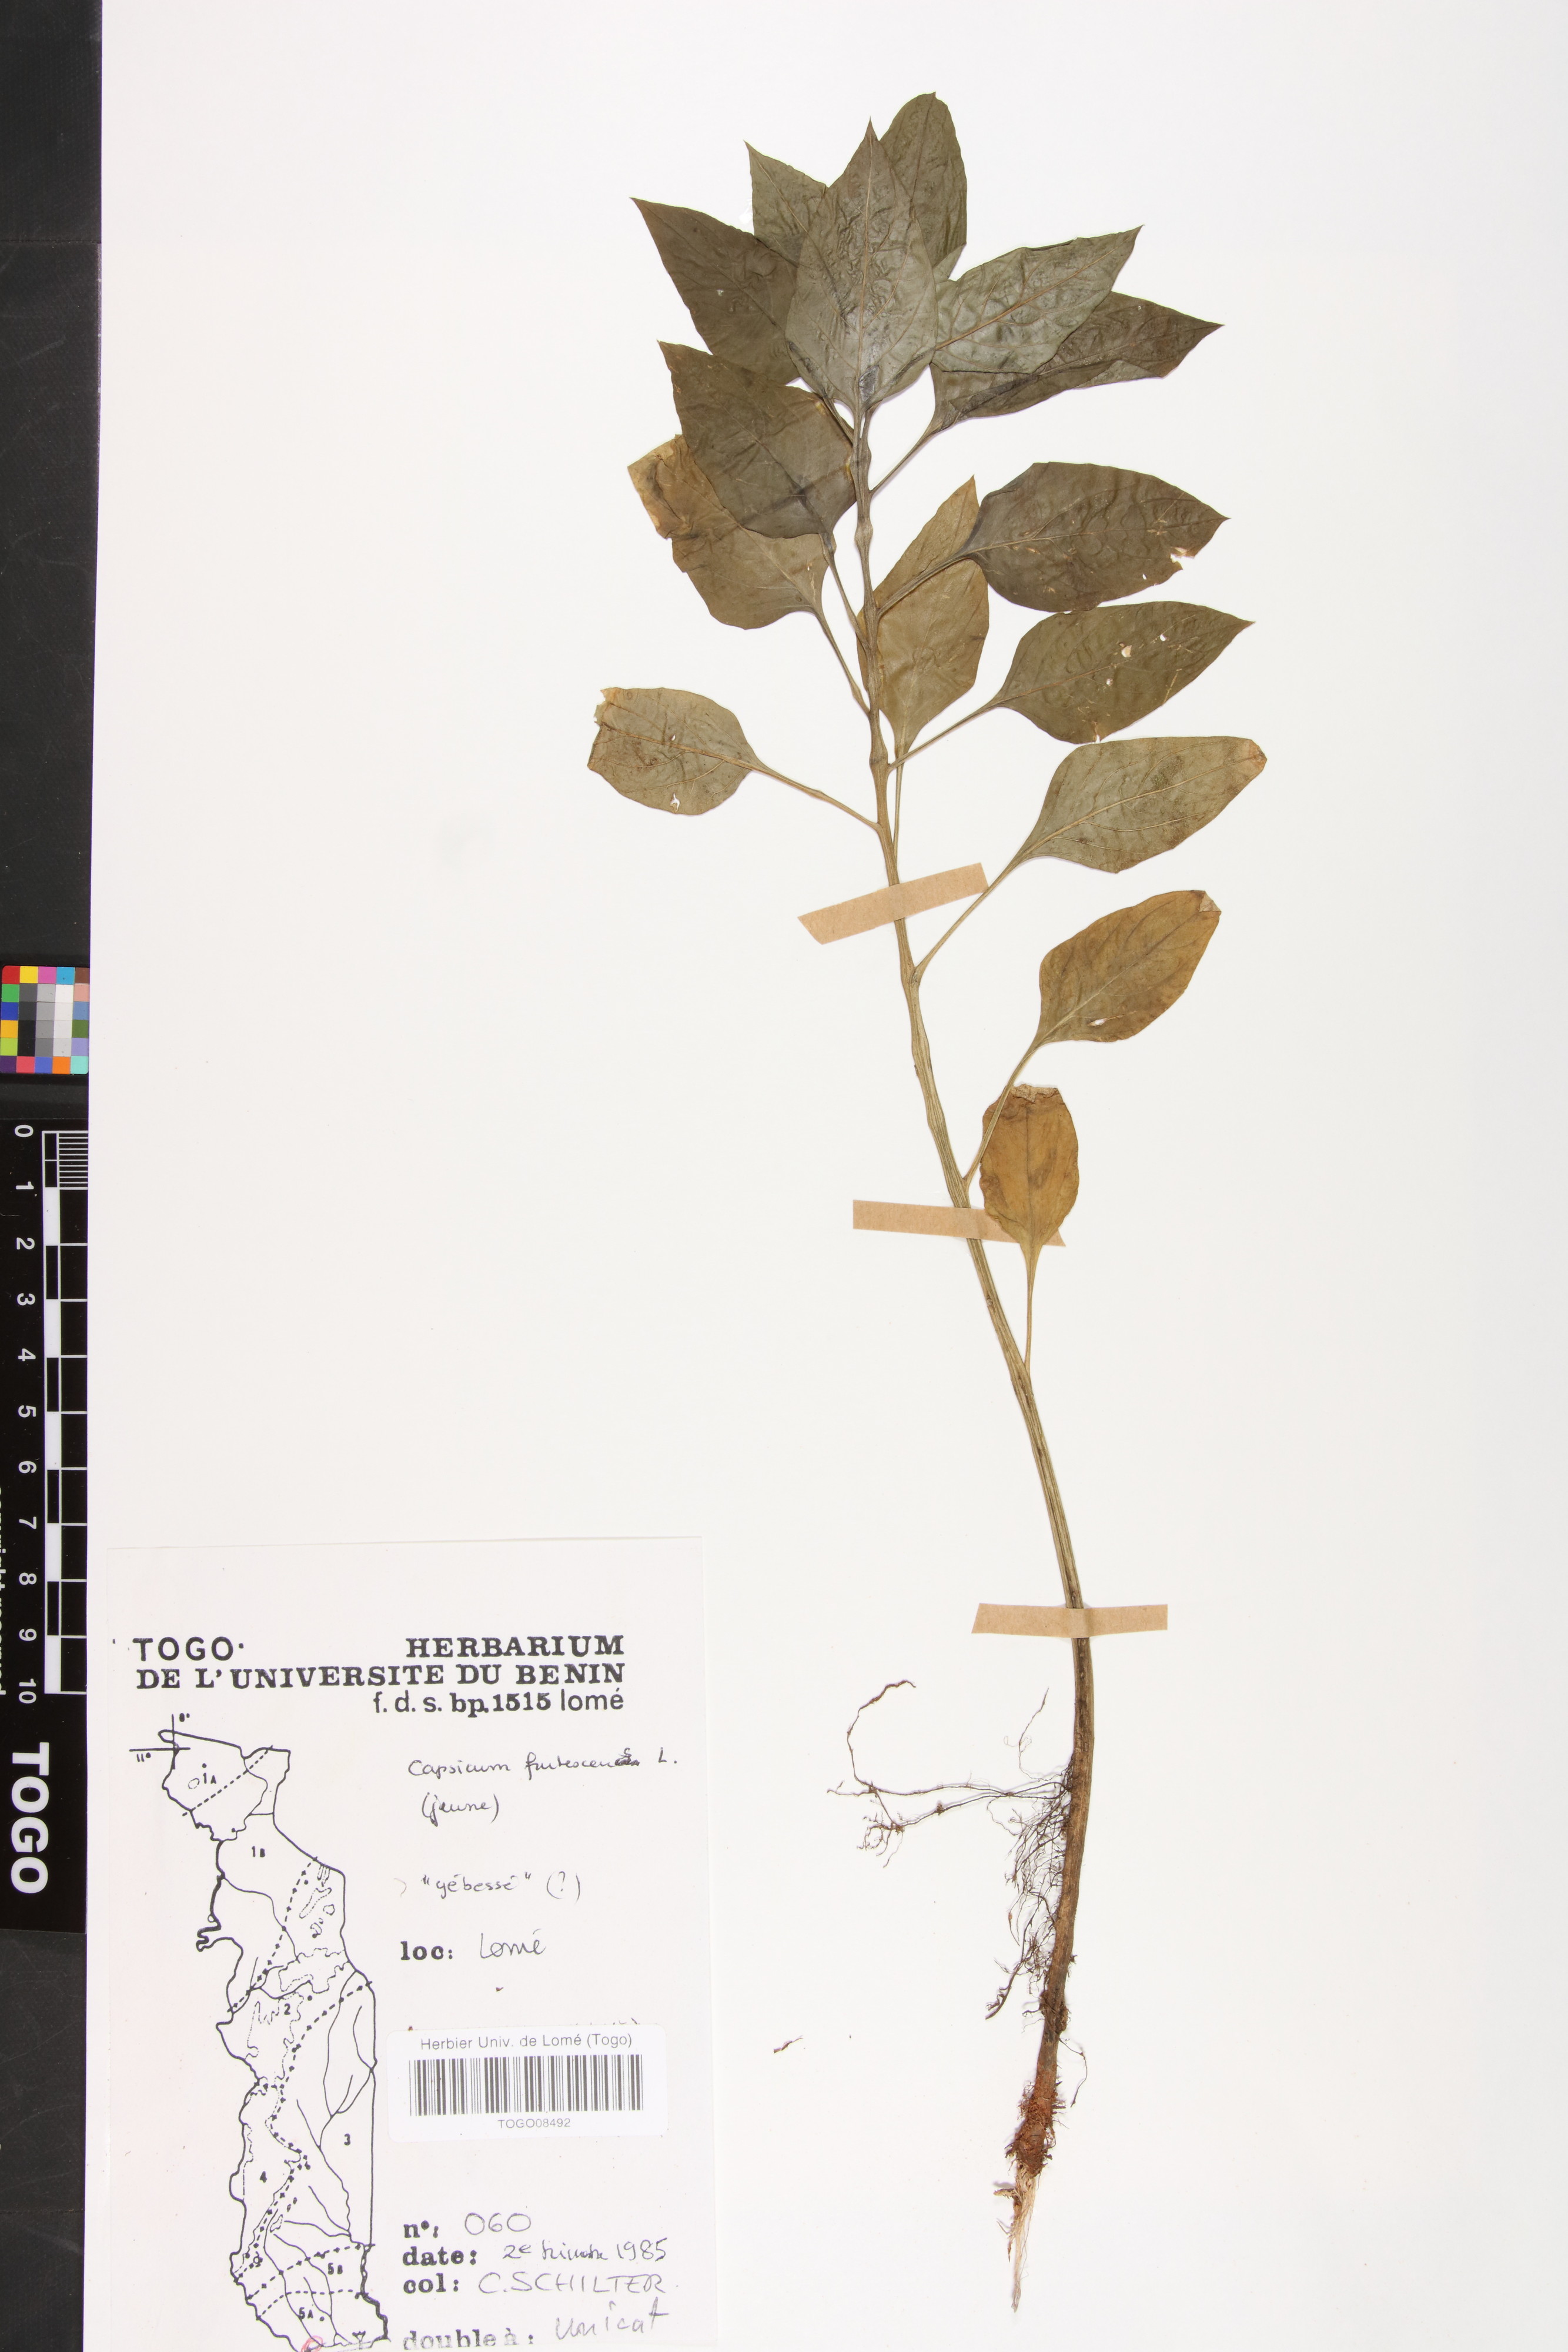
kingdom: Plantae
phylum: Tracheophyta
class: Magnoliopsida
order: Solanales
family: Solanaceae
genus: Capsicum
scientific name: Capsicum frutescens
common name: Bird pepper
